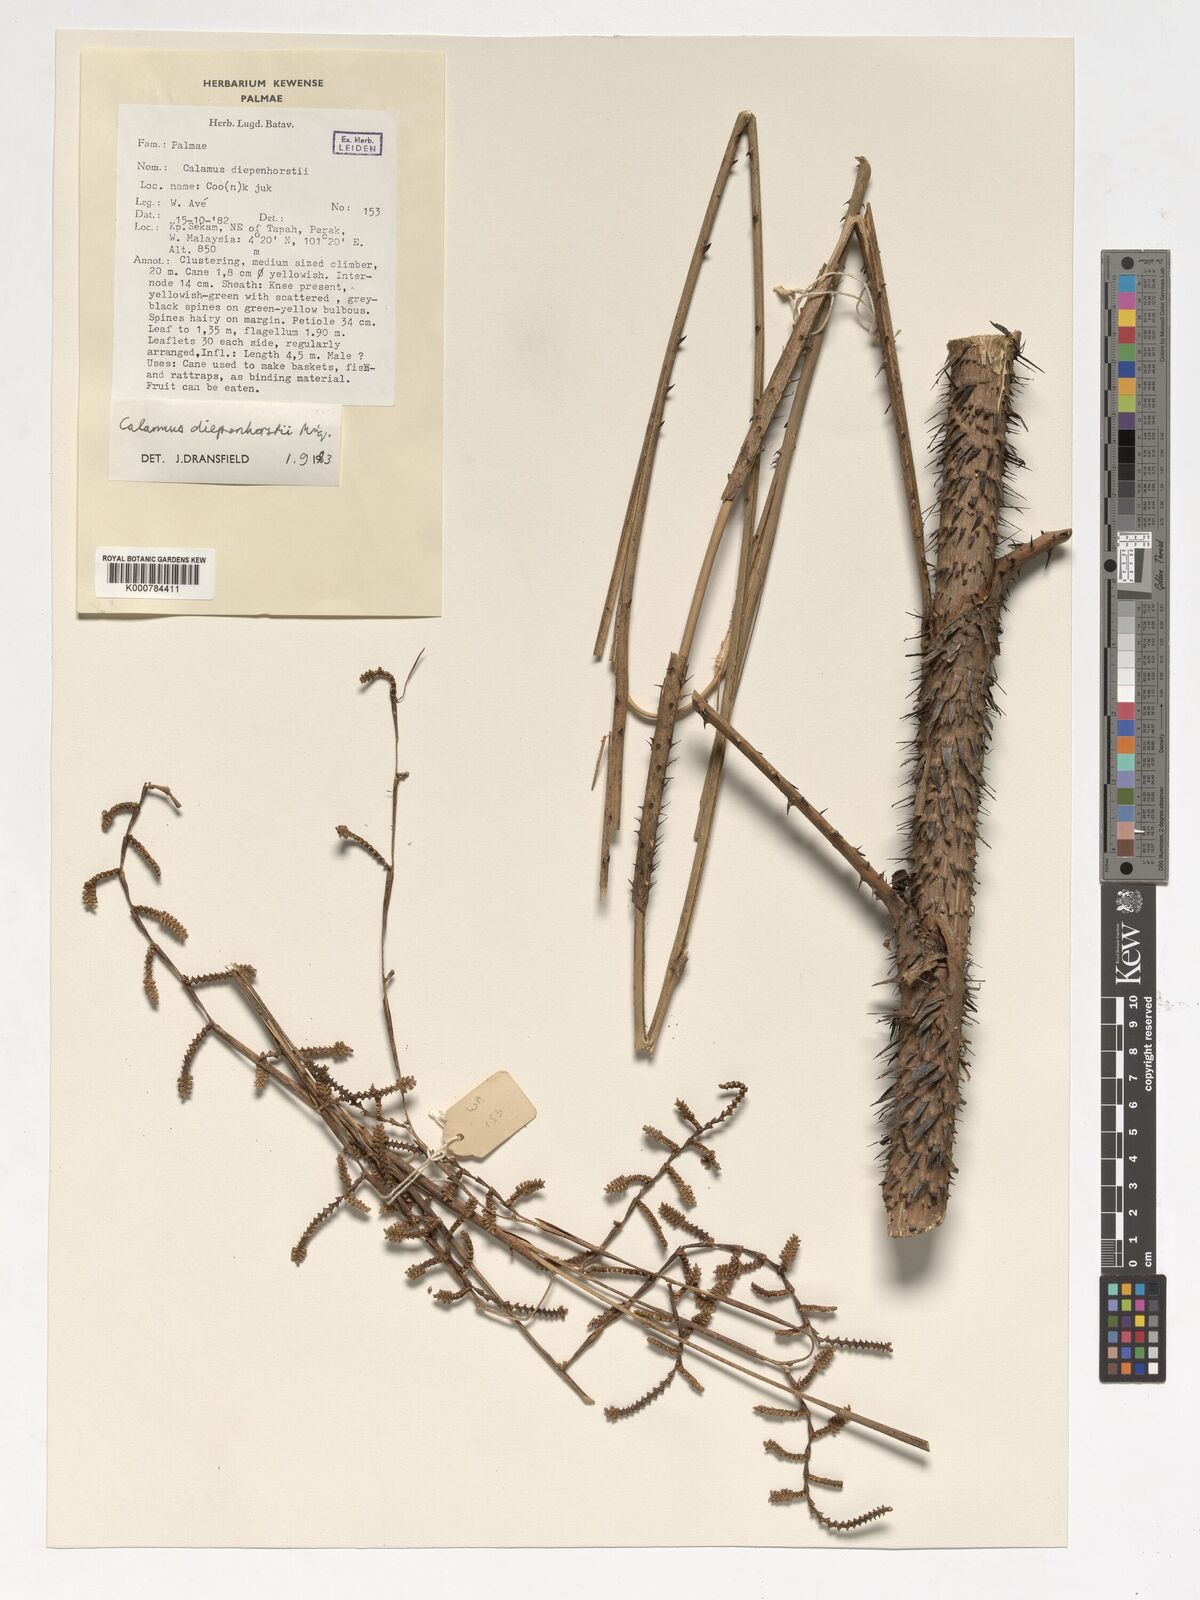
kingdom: Plantae
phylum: Tracheophyta
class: Liliopsida
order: Arecales
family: Arecaceae
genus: Calamus
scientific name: Calamus diepenhorstii
